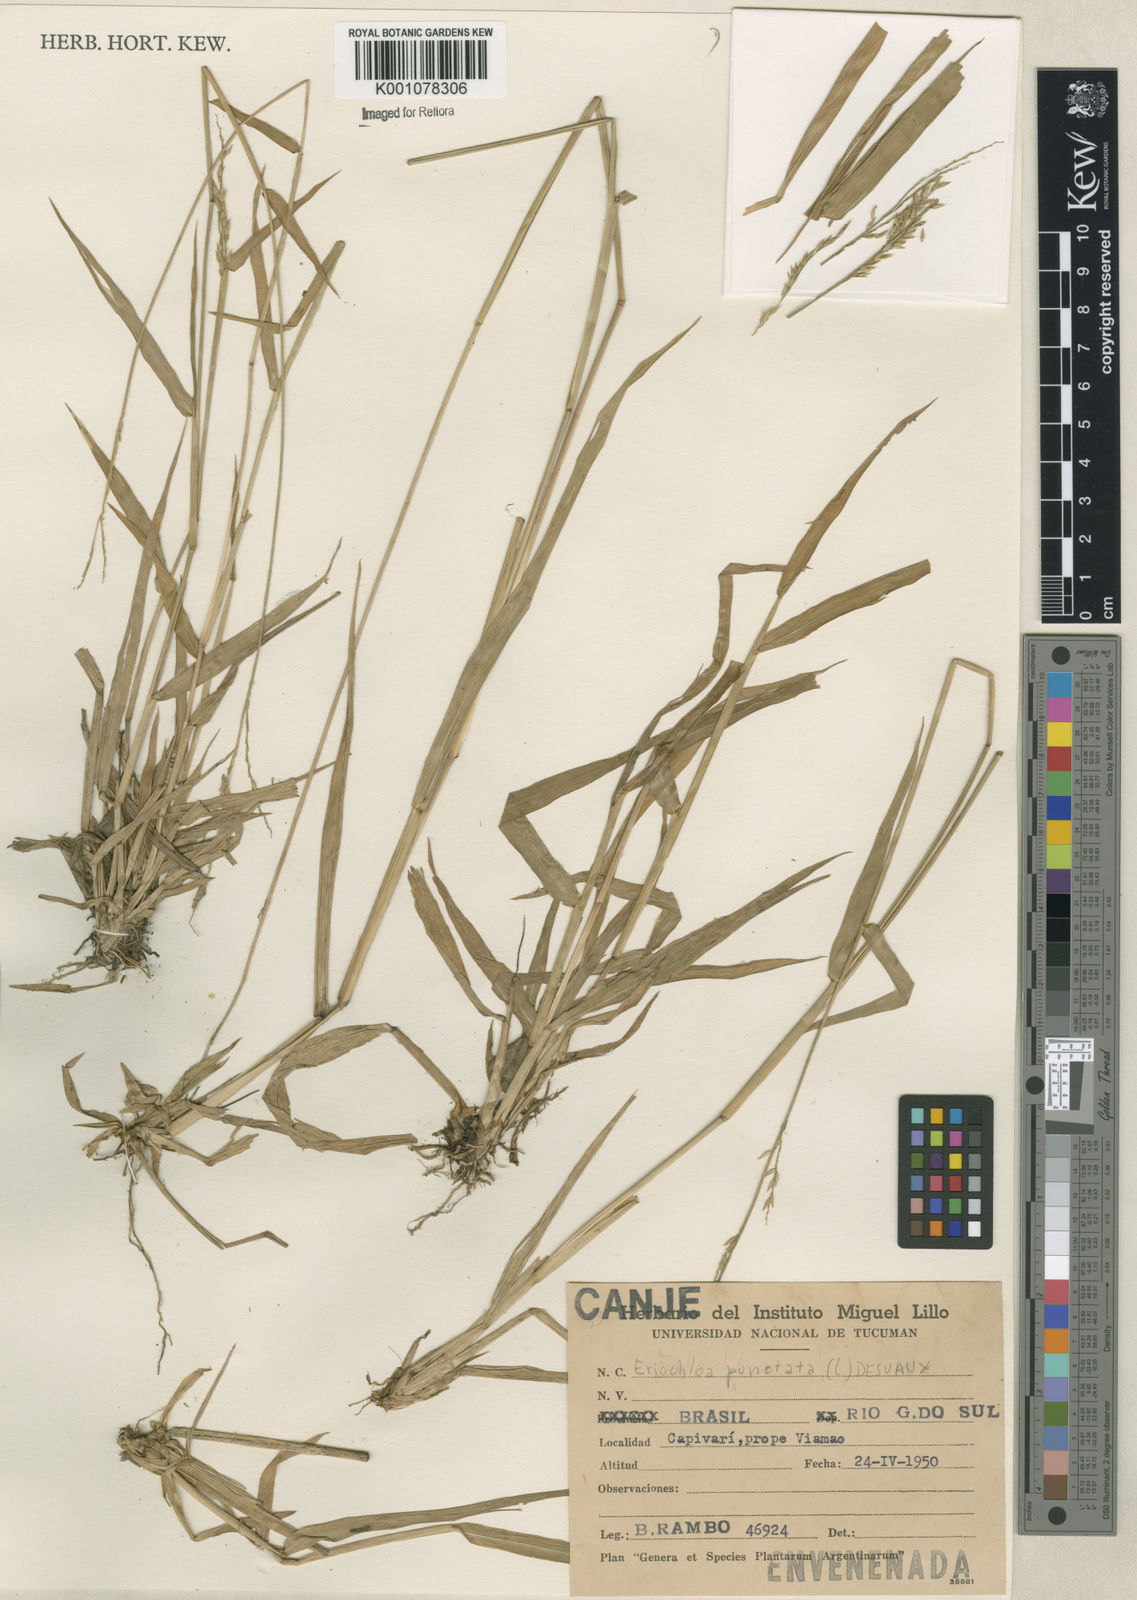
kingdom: Plantae
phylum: Tracheophyta
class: Liliopsida
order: Poales
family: Poaceae
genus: Eriochloa
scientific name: Eriochloa punctata
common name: Louisiana cupgrass
